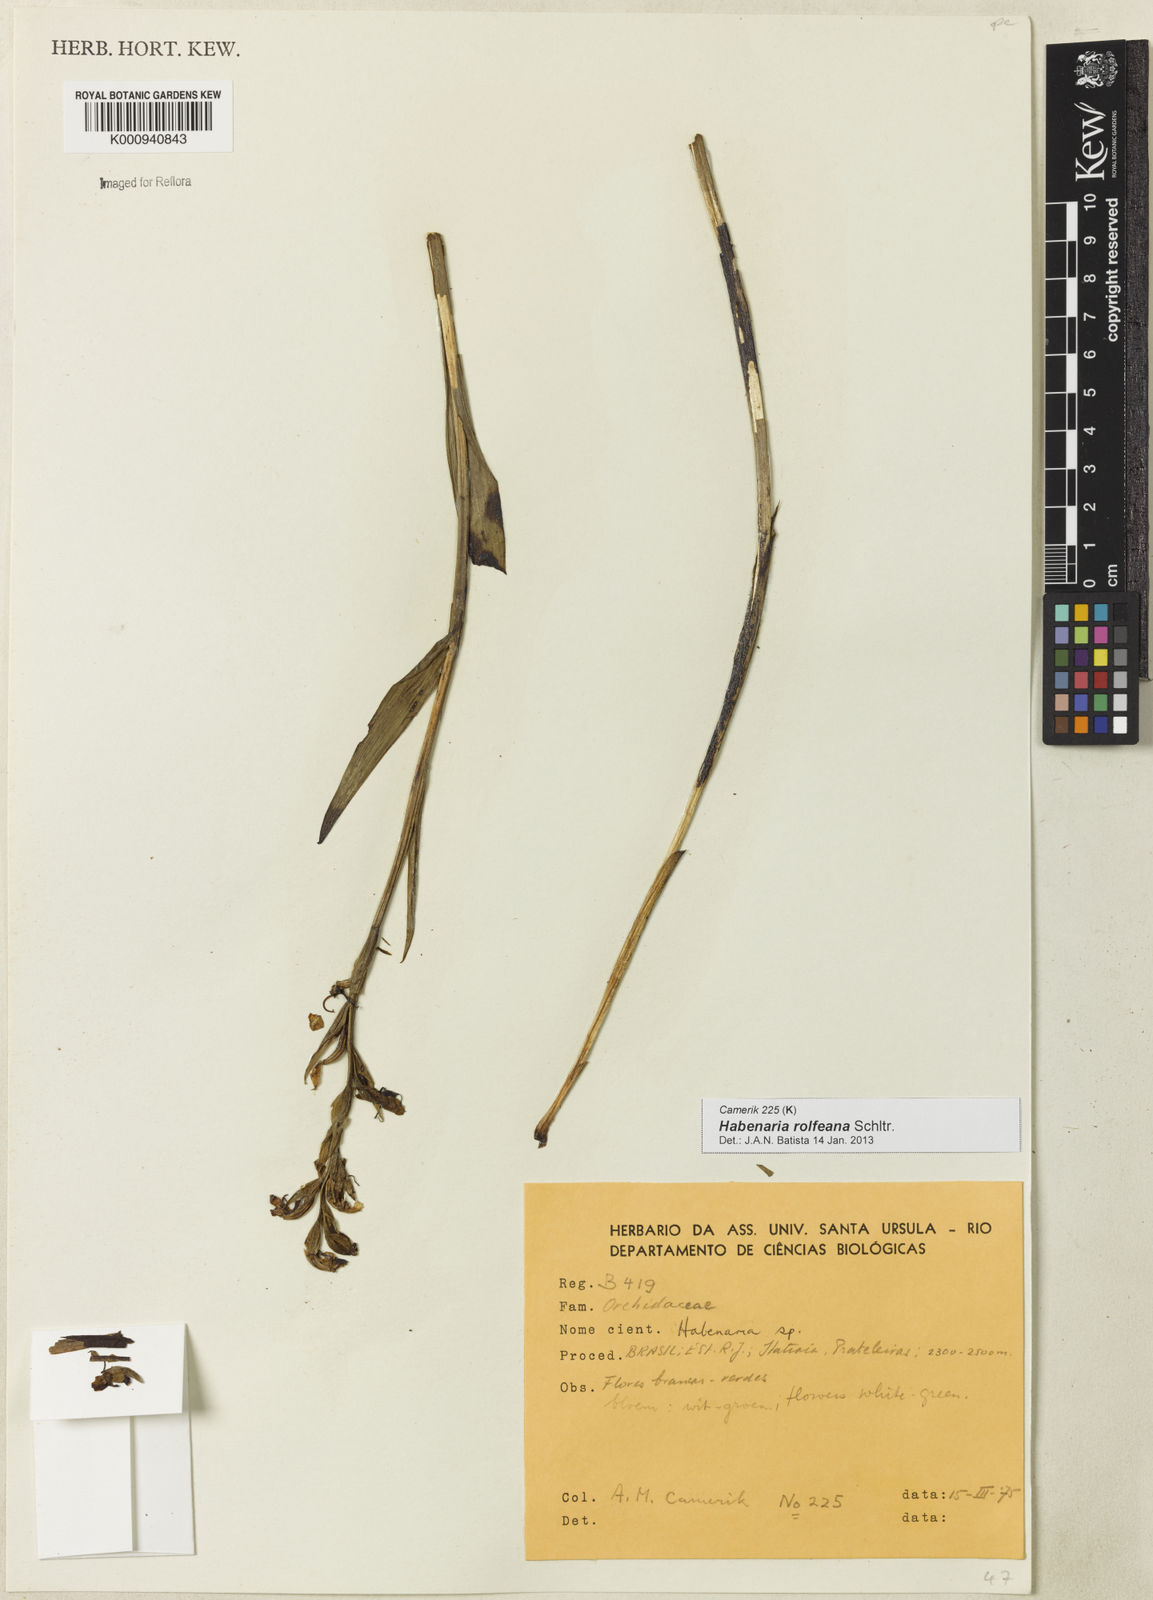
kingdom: Plantae
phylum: Tracheophyta
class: Liliopsida
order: Asparagales
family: Orchidaceae
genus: Habenaria
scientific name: Habenaria rolfeana
